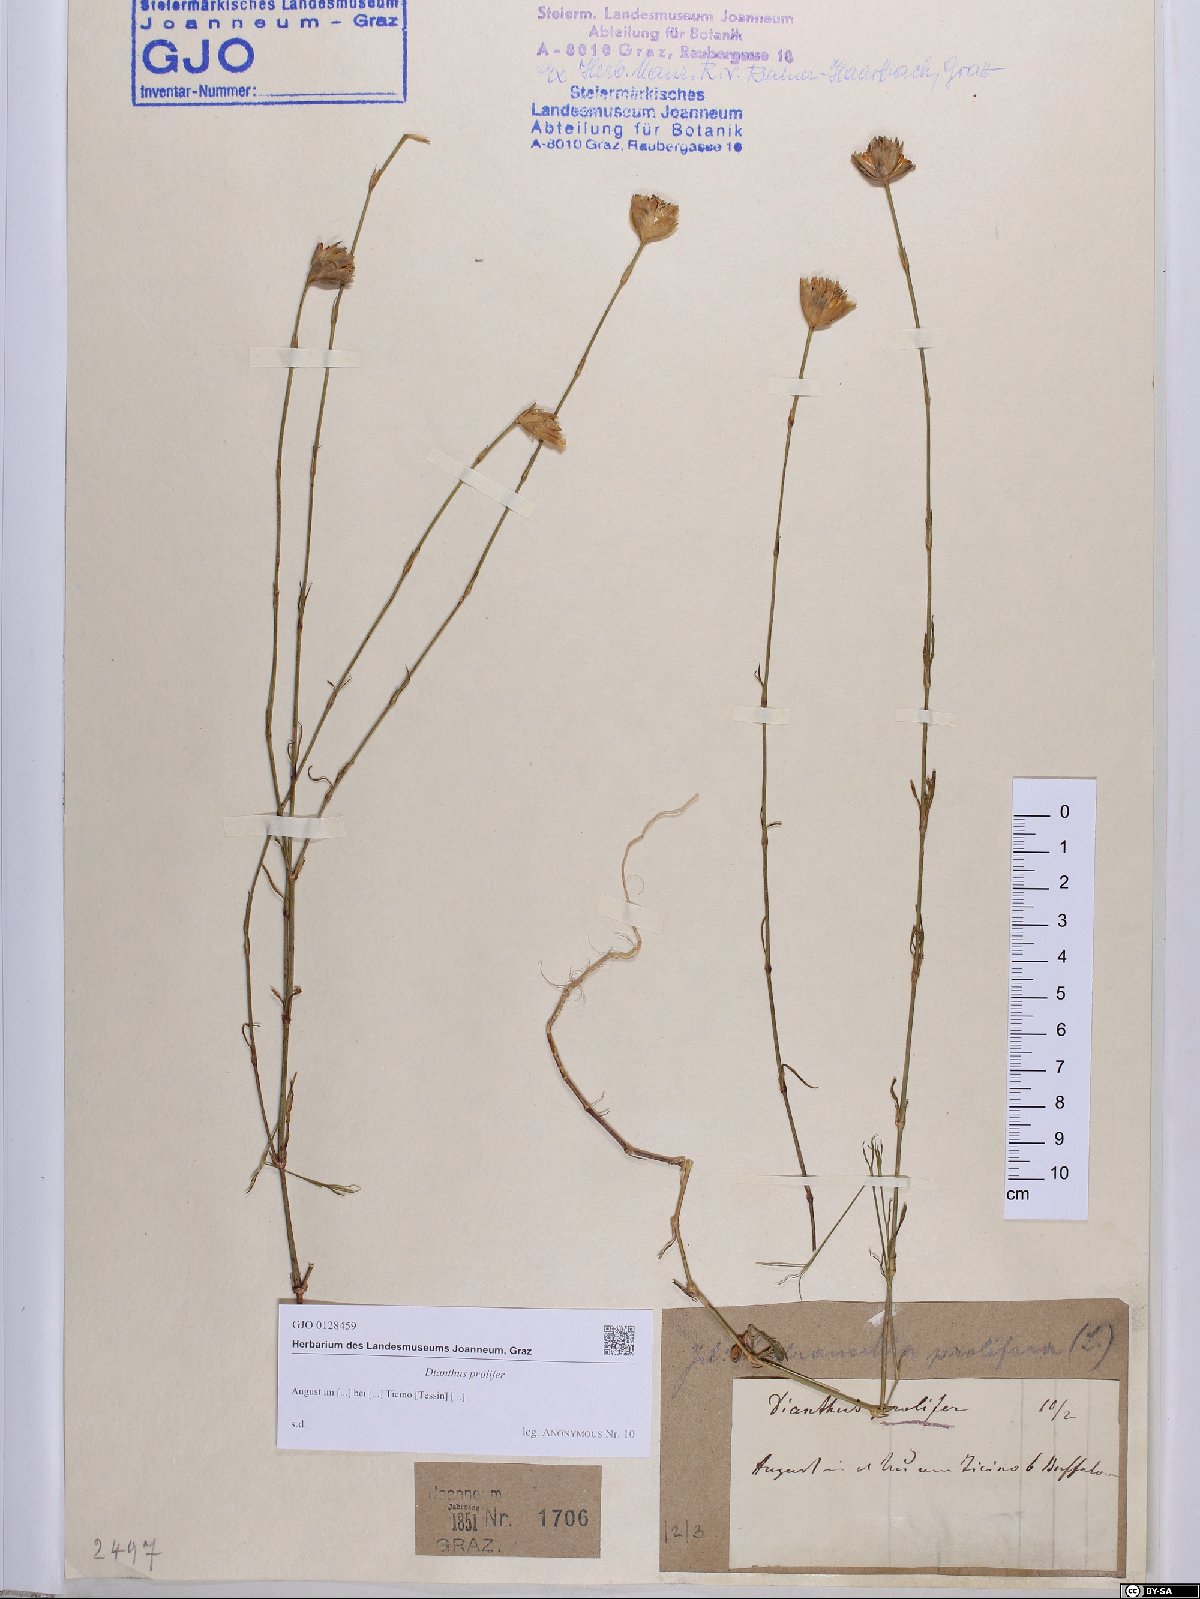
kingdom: Plantae
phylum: Tracheophyta
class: Magnoliopsida
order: Caryophyllales
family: Caryophyllaceae
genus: Petrorhagia
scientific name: Petrorhagia prolifera
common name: Proliferous pink
